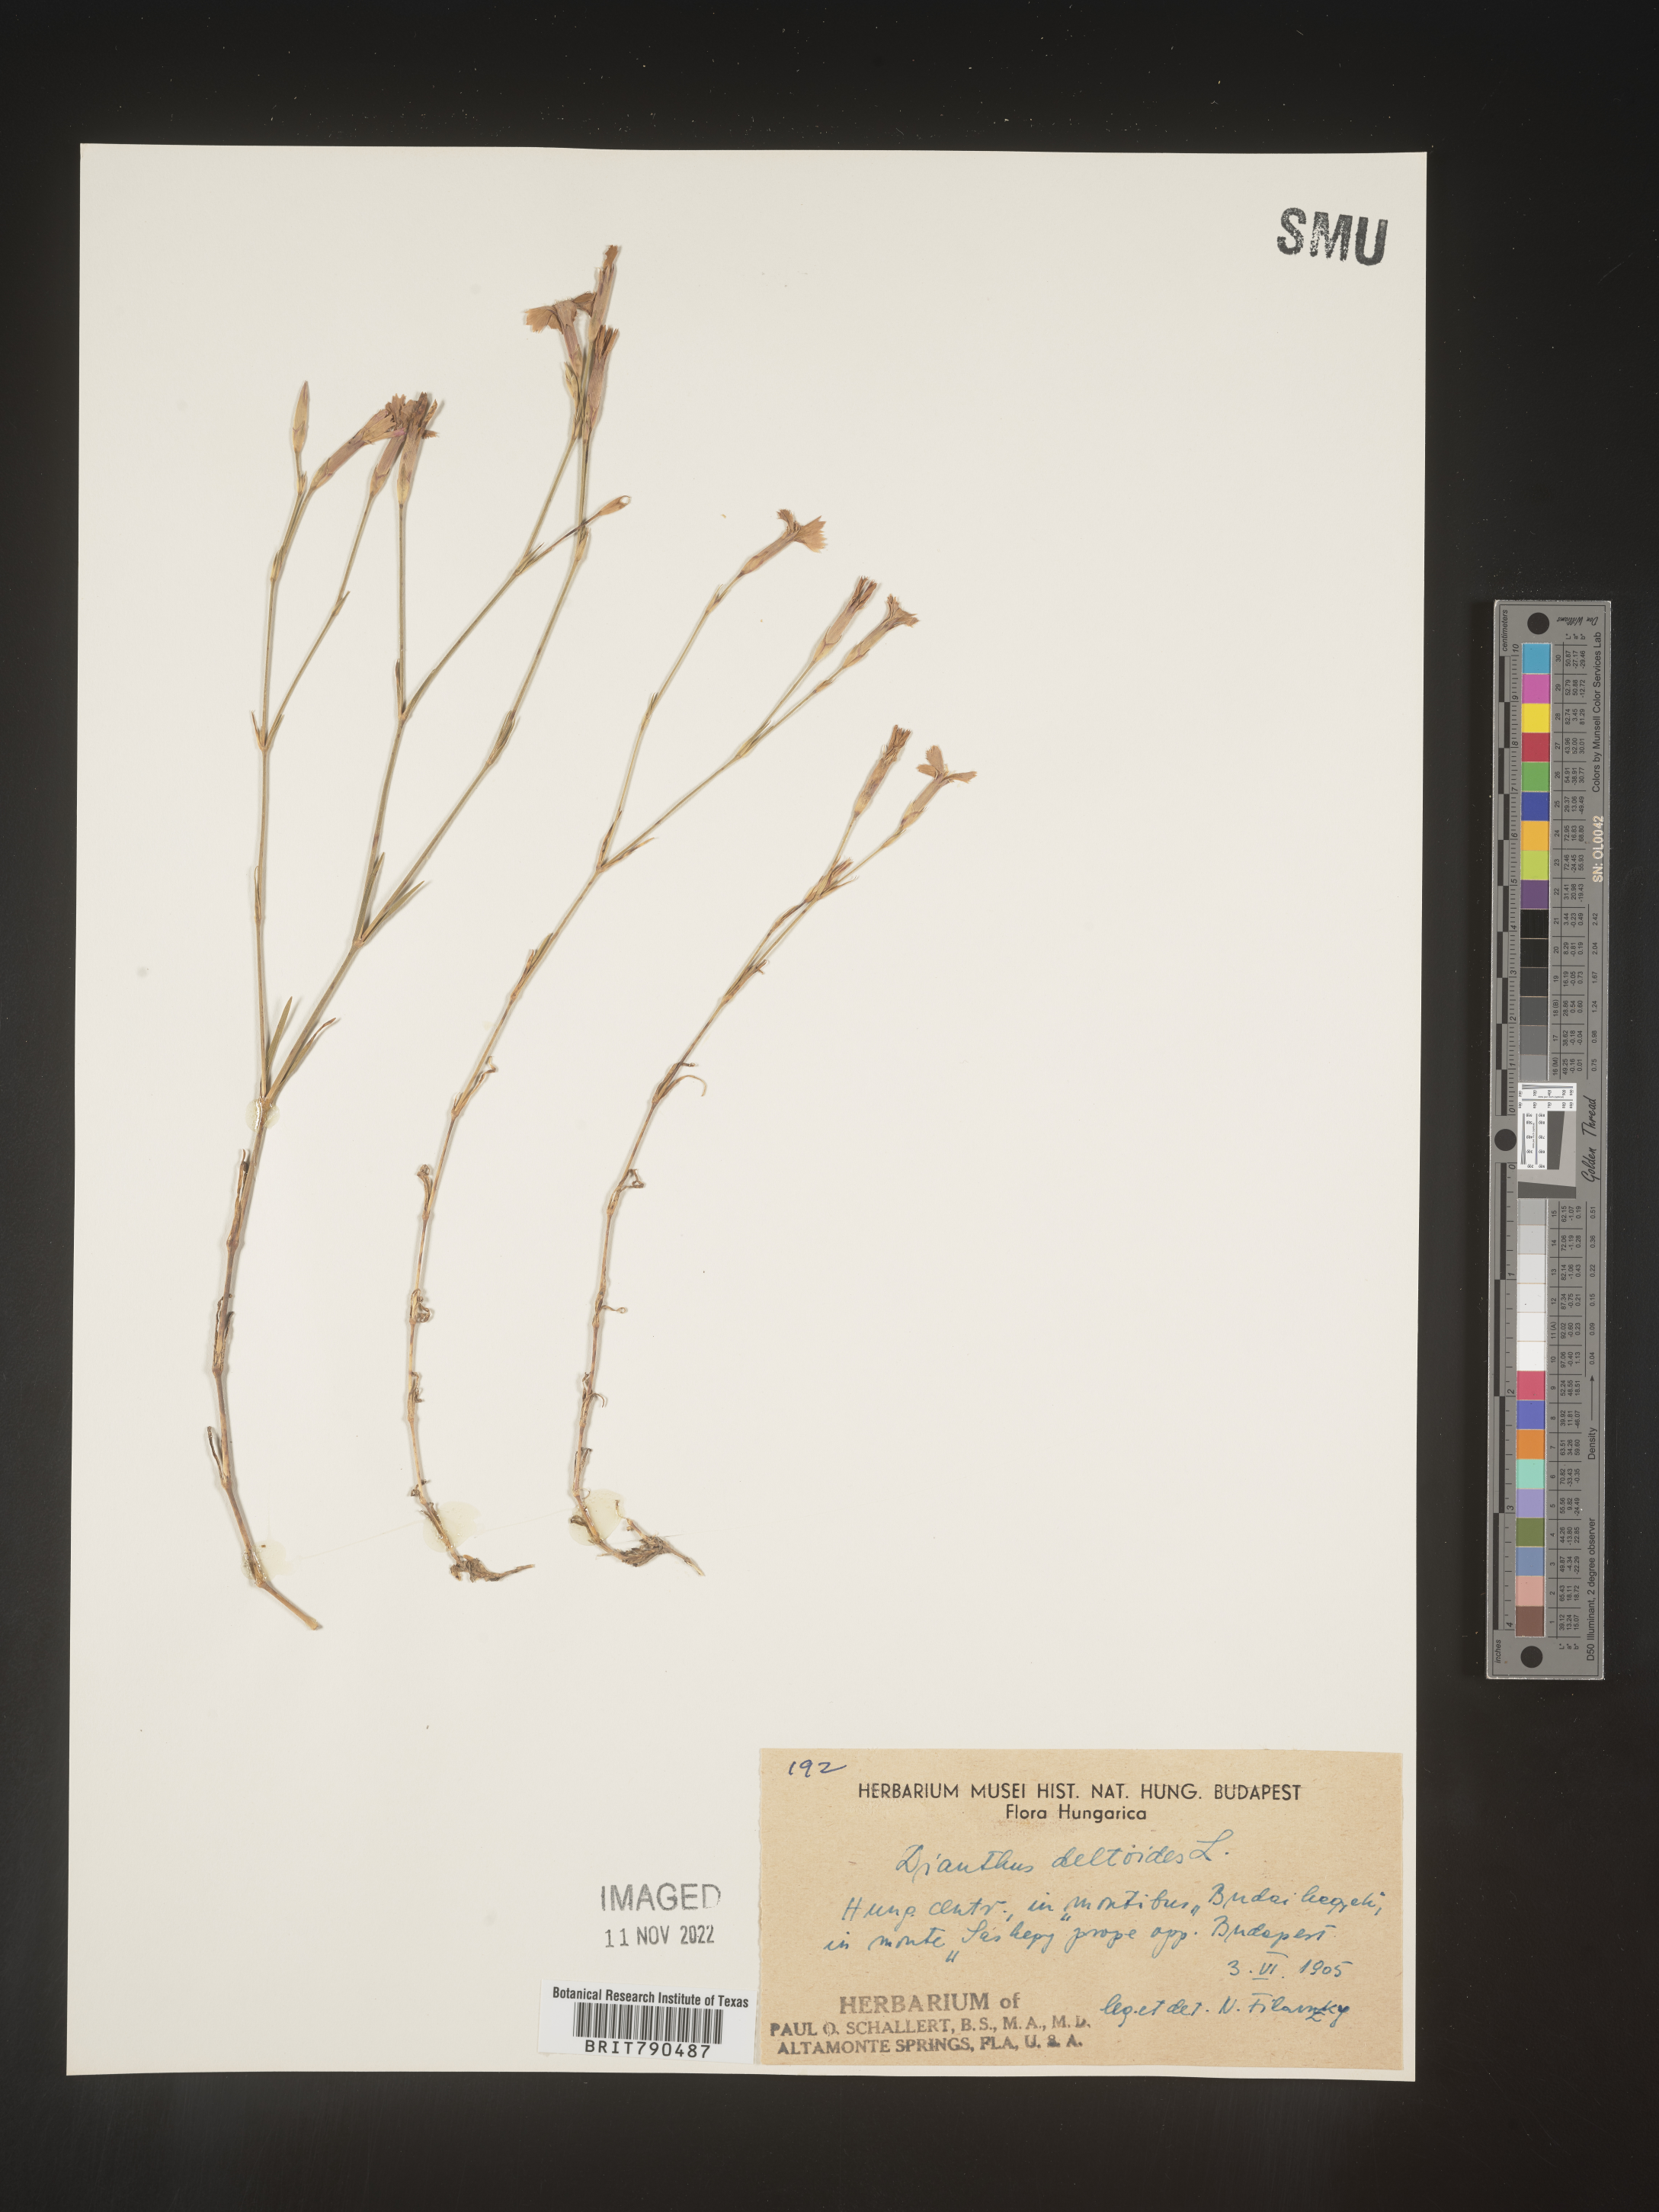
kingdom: Plantae
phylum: Tracheophyta
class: Magnoliopsida
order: Caryophyllales
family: Caryophyllaceae
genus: Dianthus
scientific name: Dianthus deltoides
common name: Maiden pink
